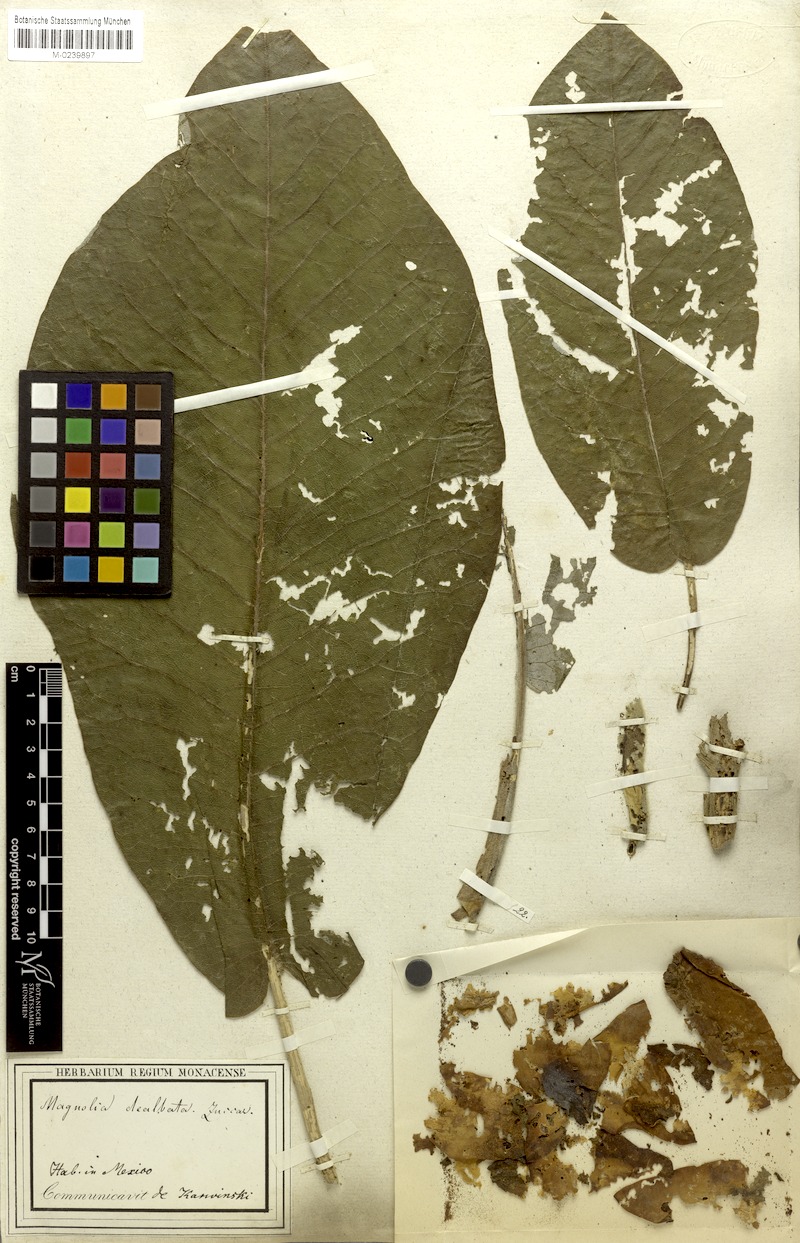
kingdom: Plantae
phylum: Tracheophyta
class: Magnoliopsida
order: Magnoliales
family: Magnoliaceae
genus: Magnolia
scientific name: Magnolia dealbata
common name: Cloudforest magnolia
